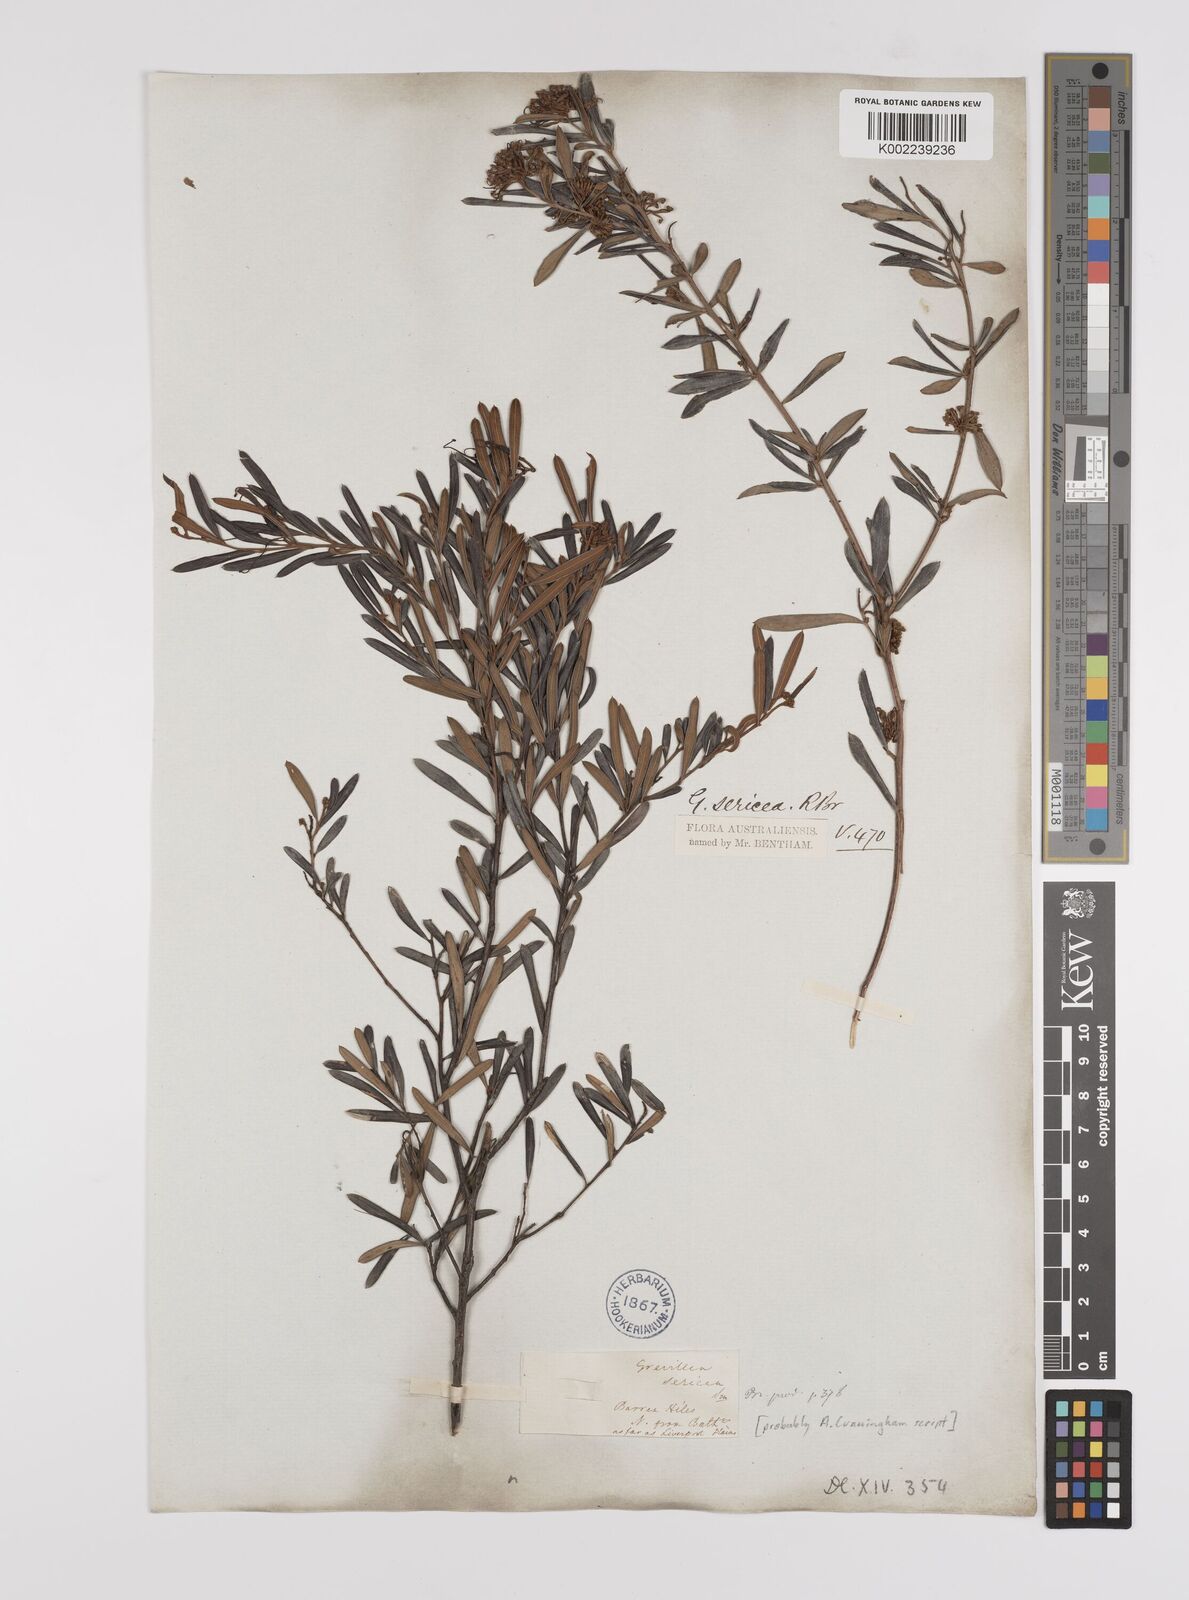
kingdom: Plantae
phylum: Tracheophyta
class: Magnoliopsida
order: Proteales
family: Proteaceae
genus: Grevillea
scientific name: Grevillea sericea
